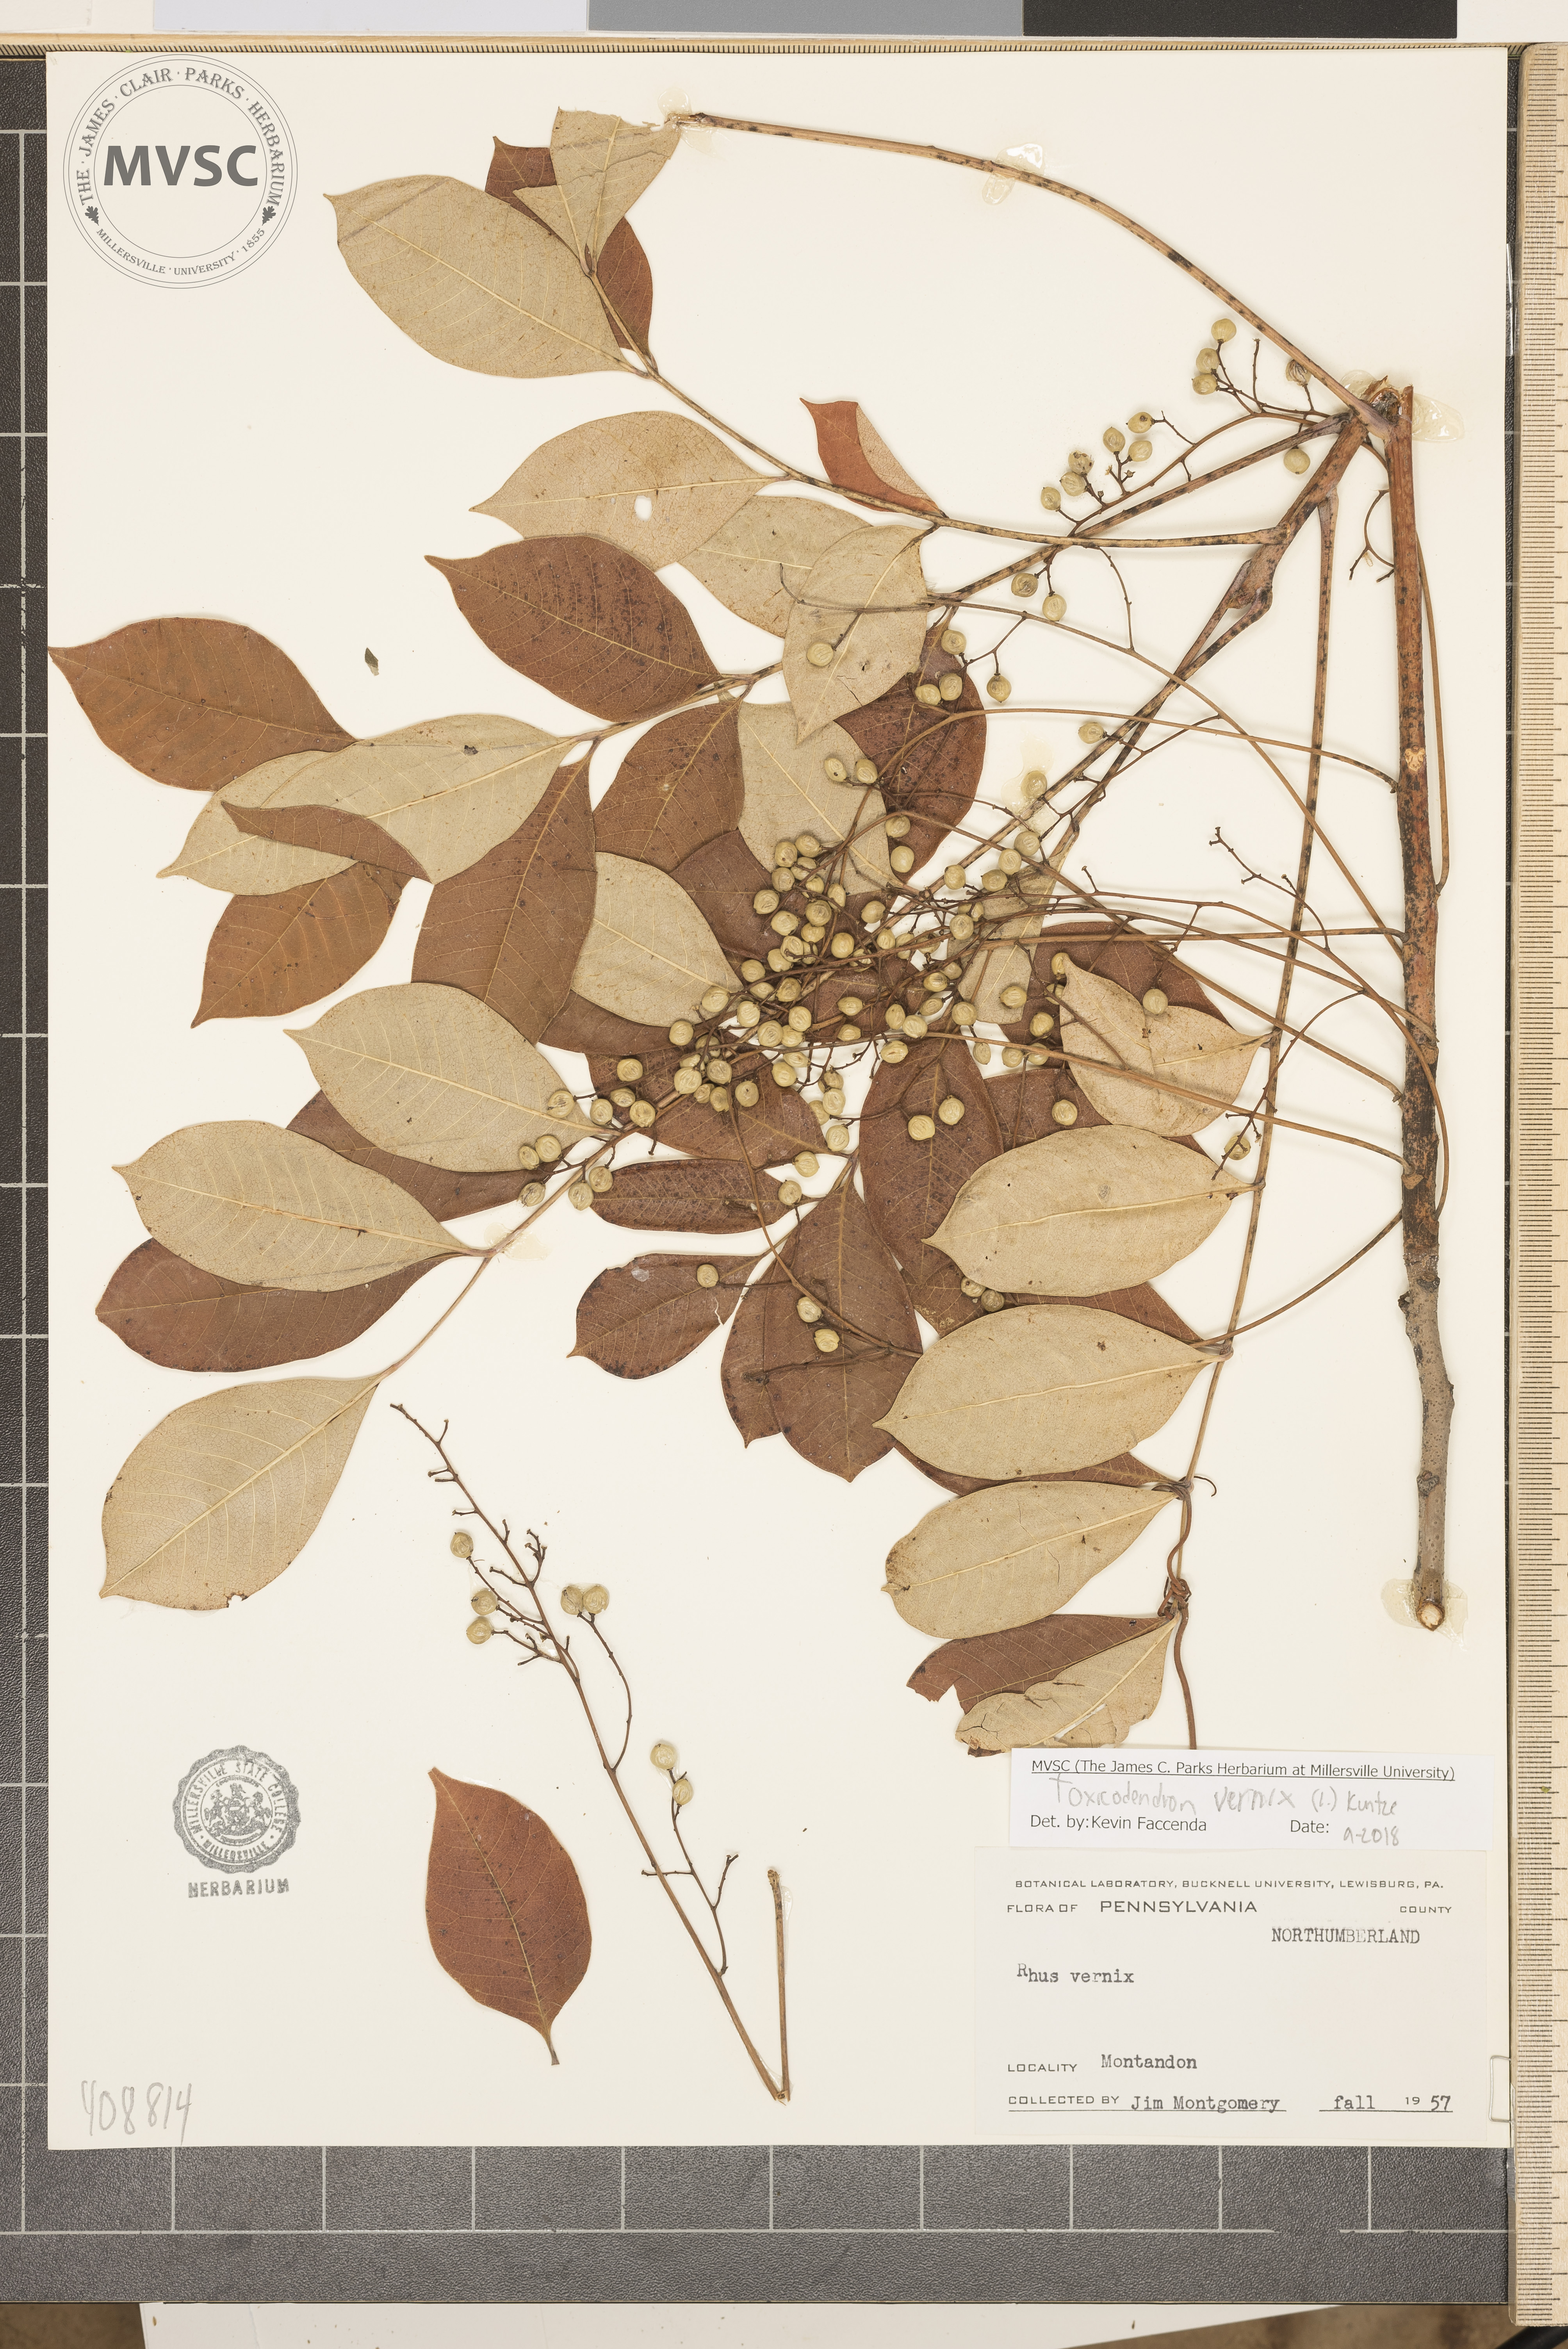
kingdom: Plantae
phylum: Tracheophyta
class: Magnoliopsida
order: Sapindales
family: Anacardiaceae
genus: Toxicodendron
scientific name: Toxicodendron vernix
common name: Poison sumac
